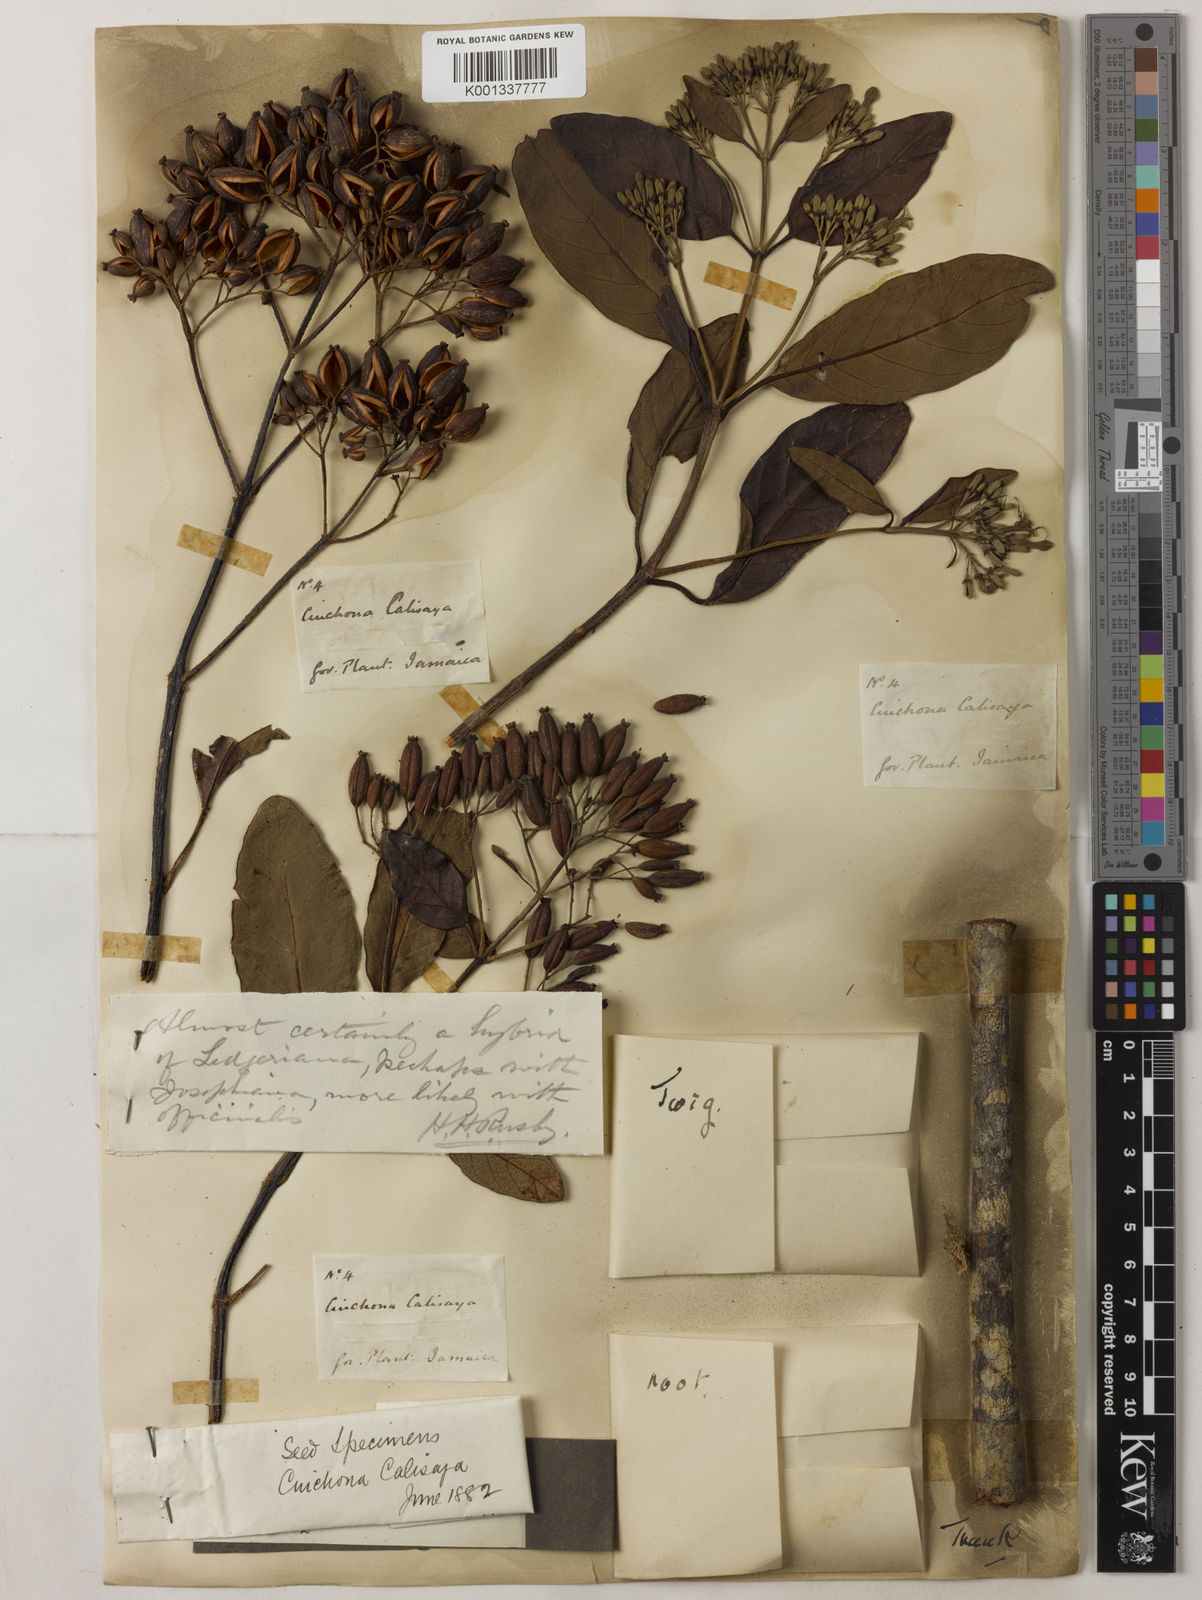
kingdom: Plantae
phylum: Tracheophyta
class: Magnoliopsida
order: Gentianales
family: Rubiaceae
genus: Cinchona
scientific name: Cinchona
